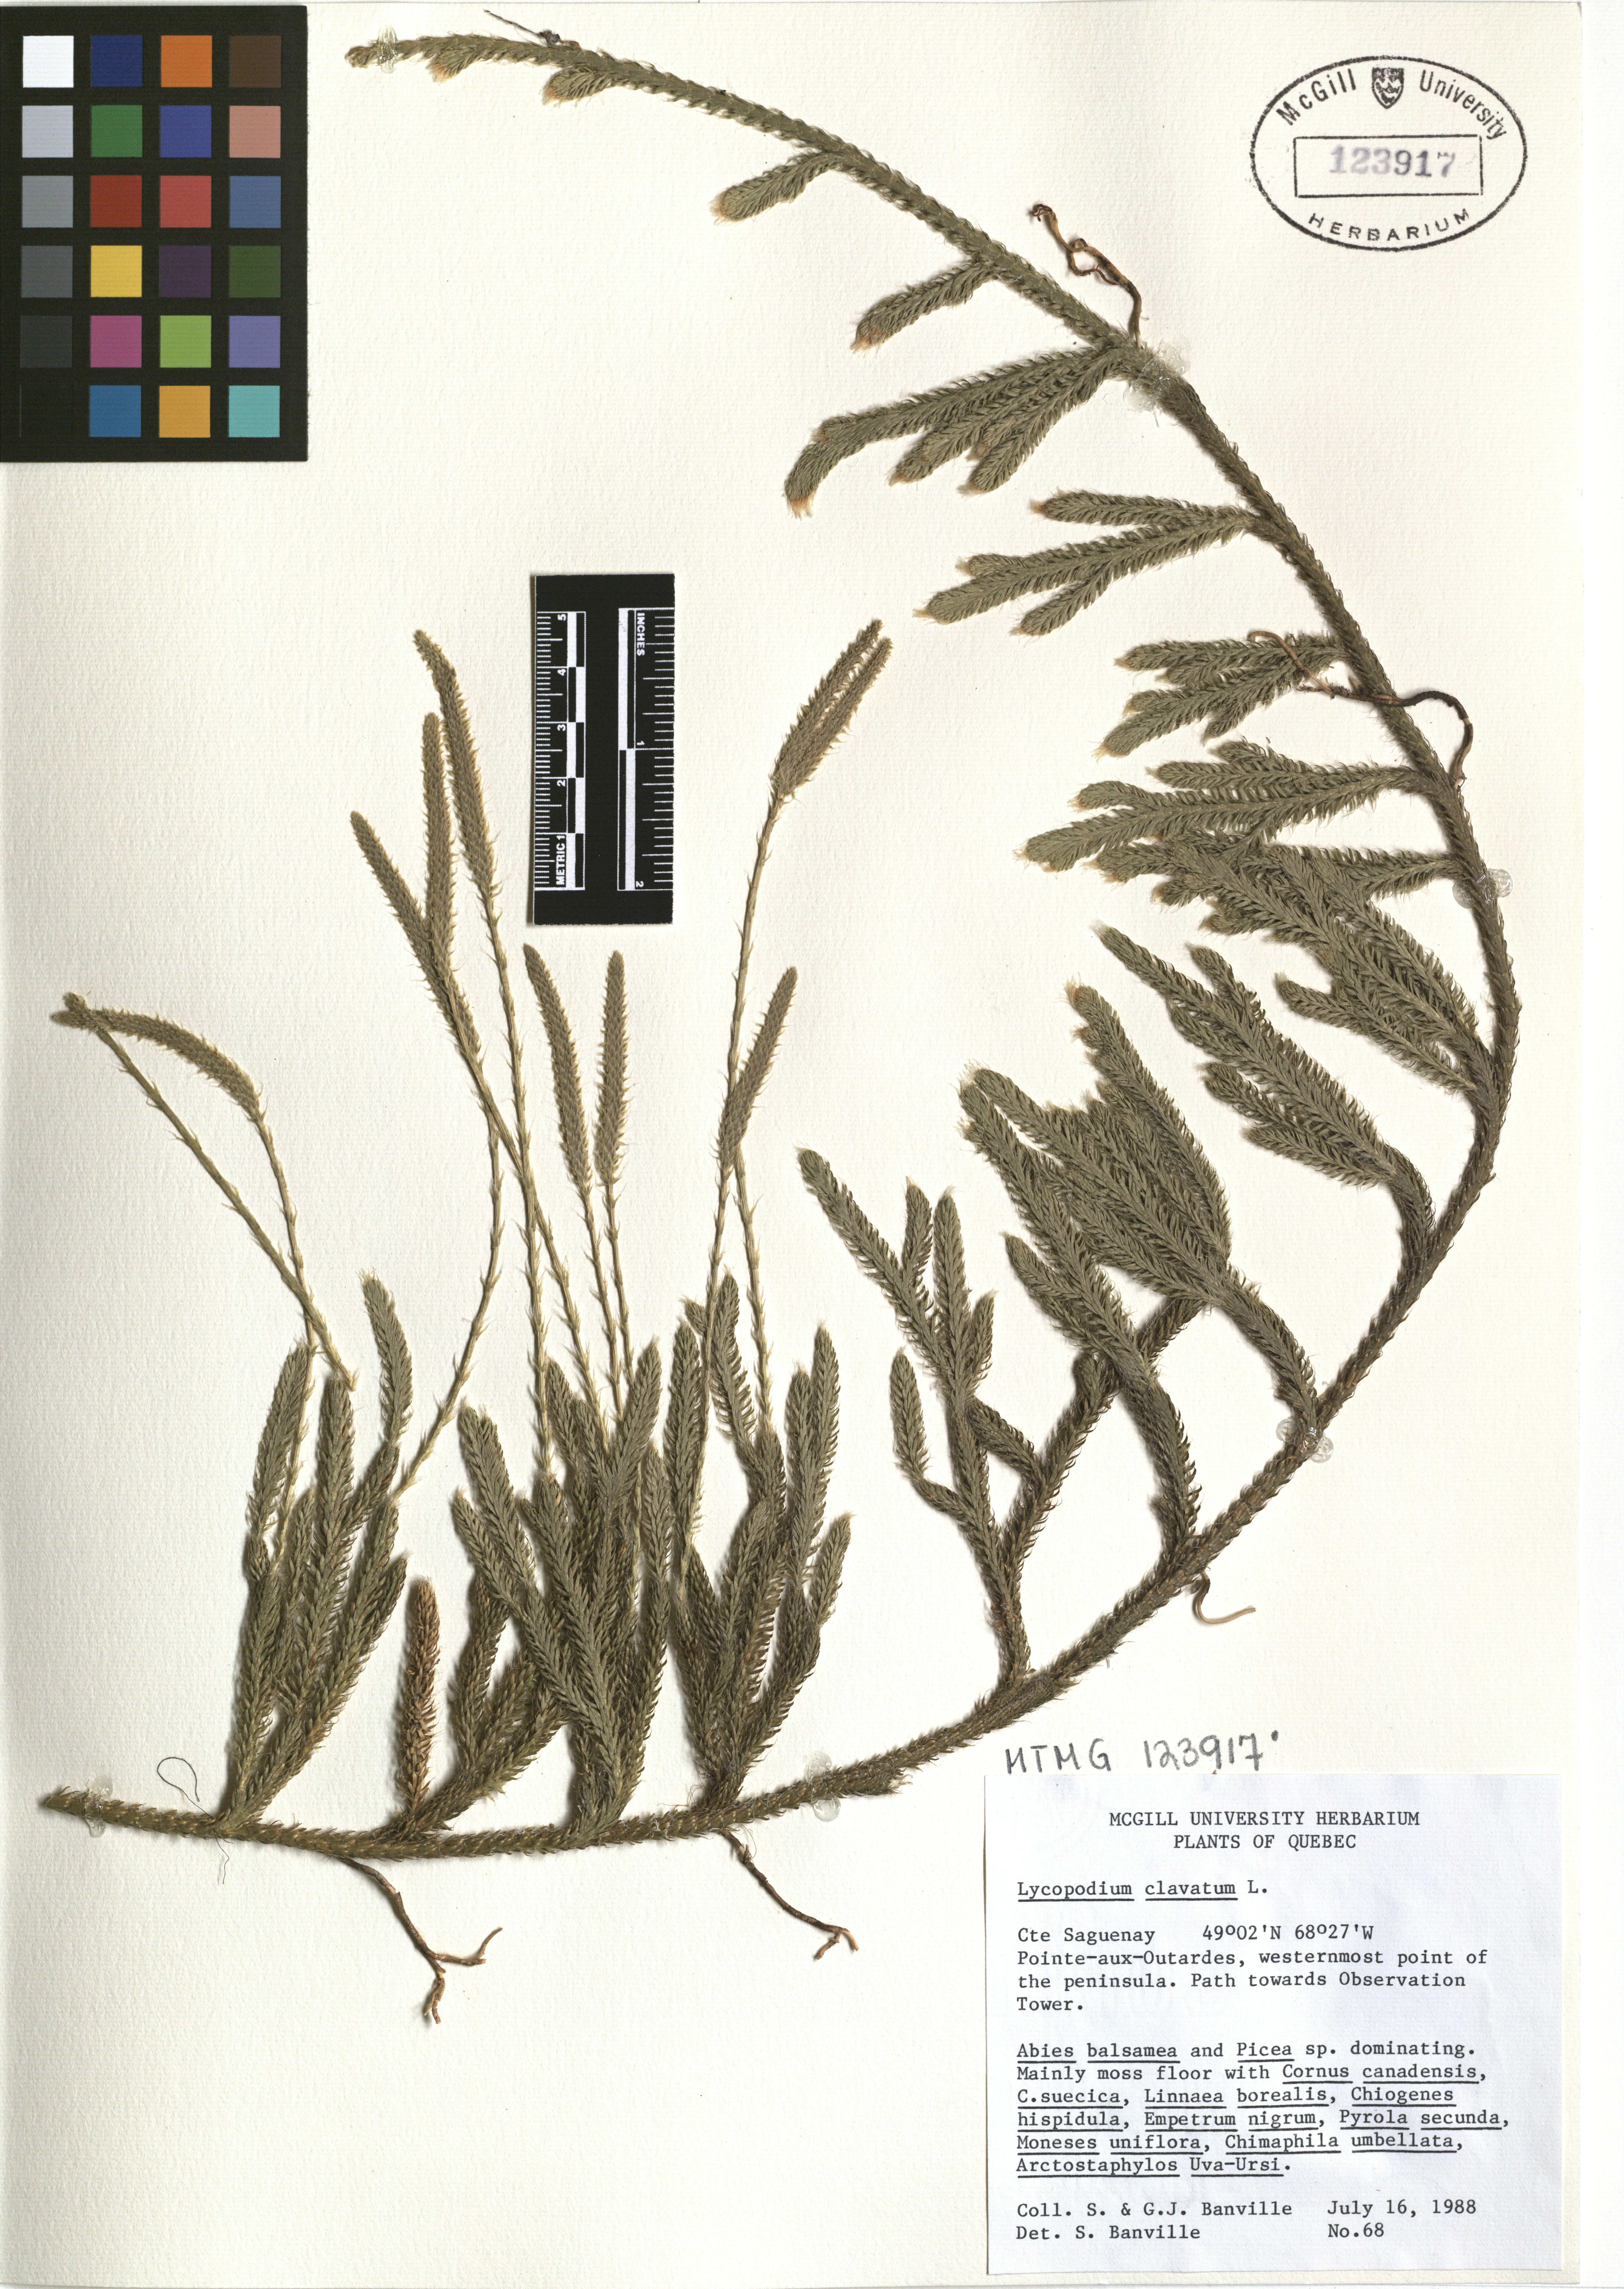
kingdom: Plantae
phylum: Tracheophyta
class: Lycopodiopsida
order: Lycopodiales
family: Lycopodiaceae
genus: Lycopodium
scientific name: Lycopodium clavatum
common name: Stag's-horn clubmoss
